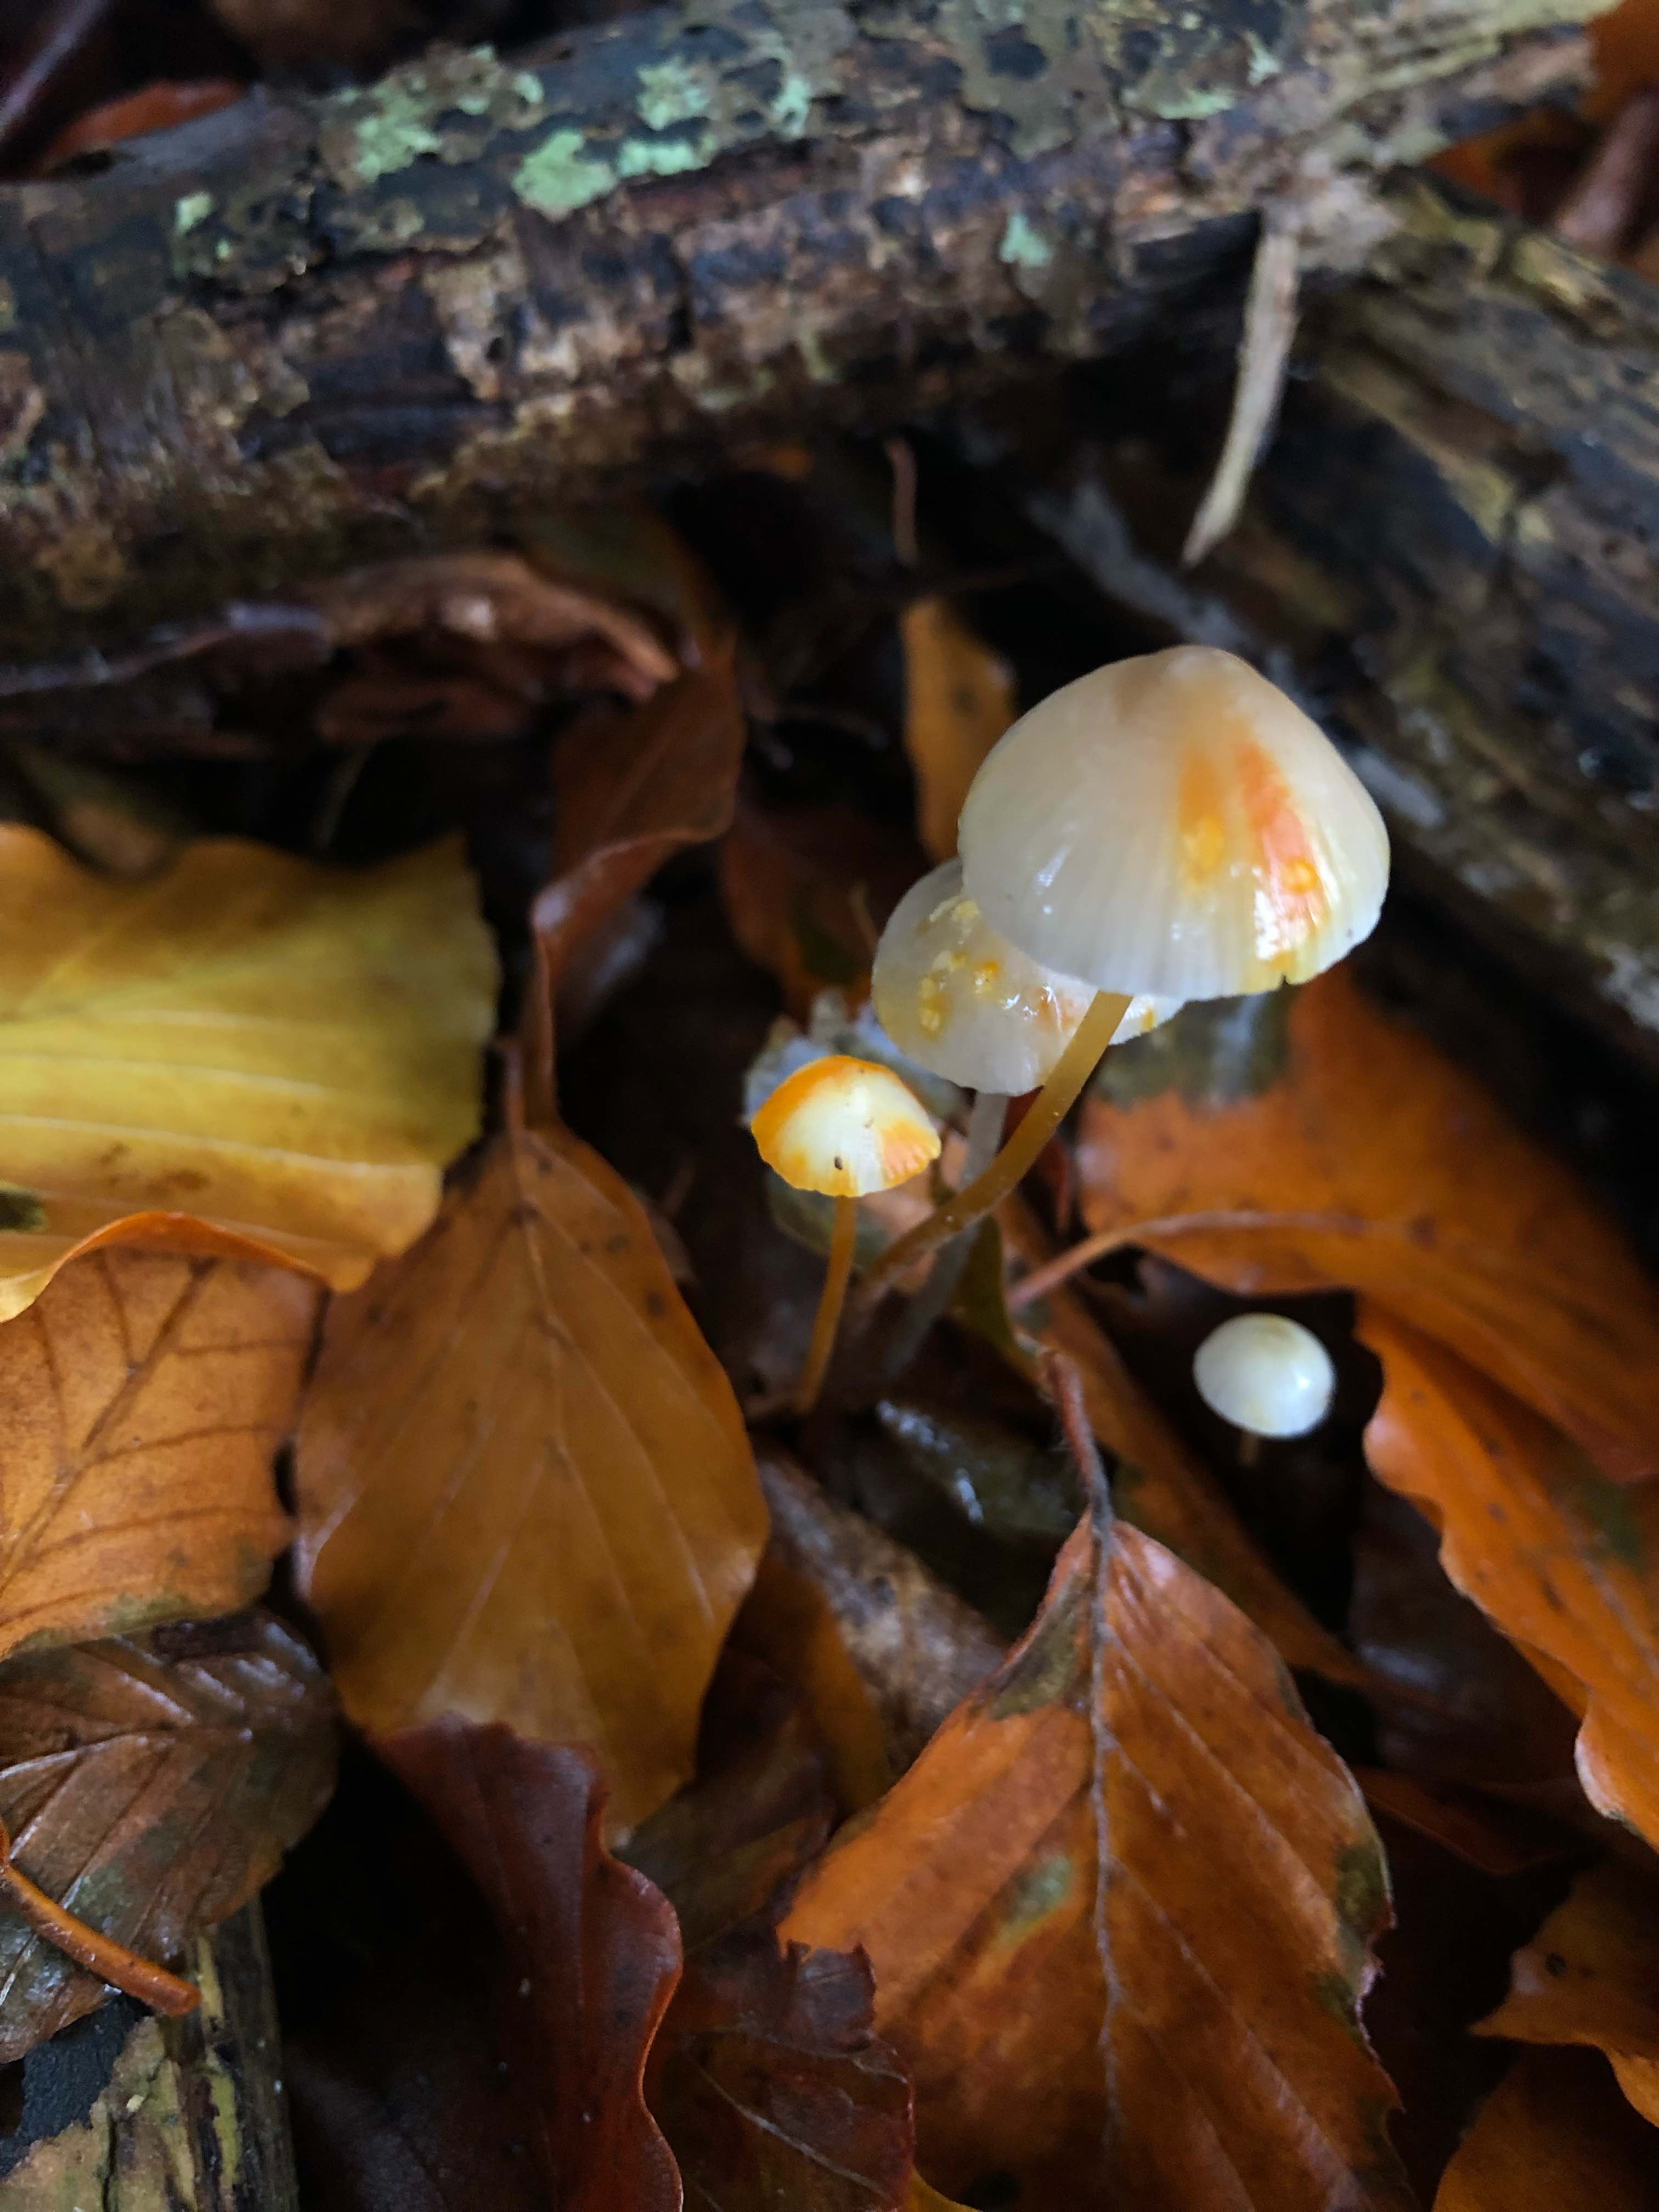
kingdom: Fungi
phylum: Basidiomycota
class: Agaricomycetes
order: Agaricales
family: Mycenaceae
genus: Mycena
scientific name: Mycena crocata
